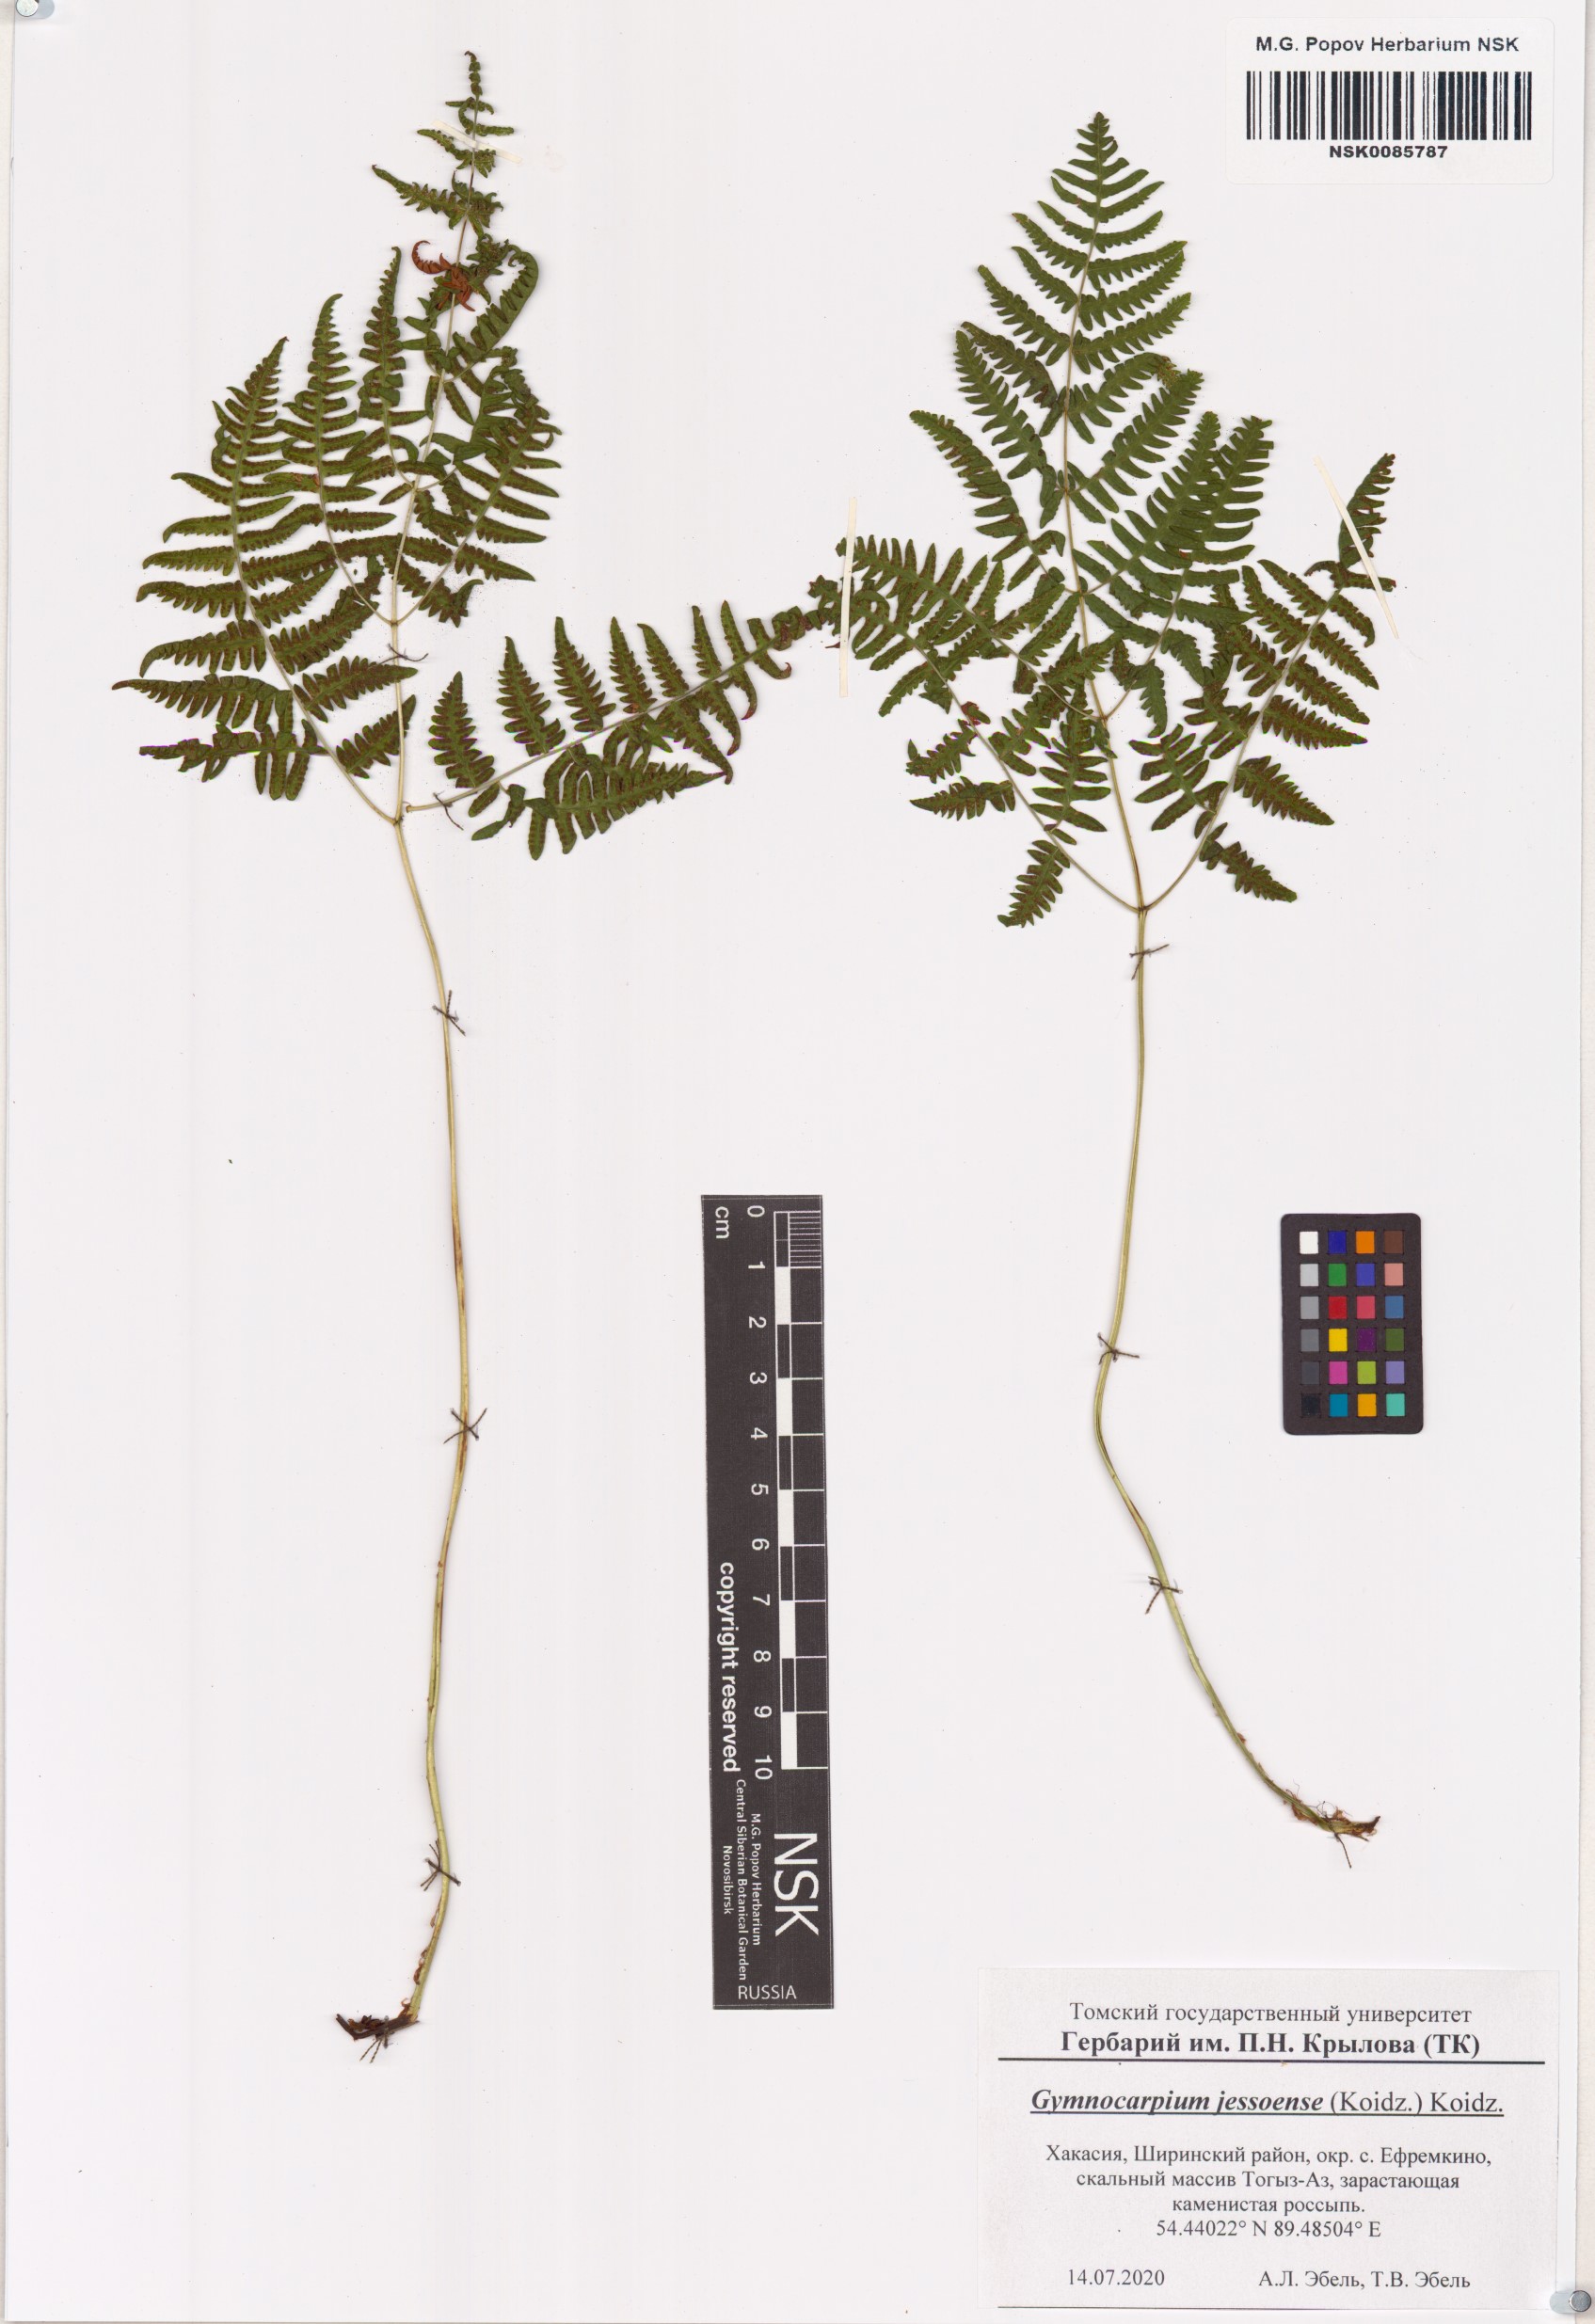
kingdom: Plantae
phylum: Tracheophyta
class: Polypodiopsida
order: Polypodiales
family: Cystopteridaceae
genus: Gymnocarpium
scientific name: Gymnocarpium jessoense
